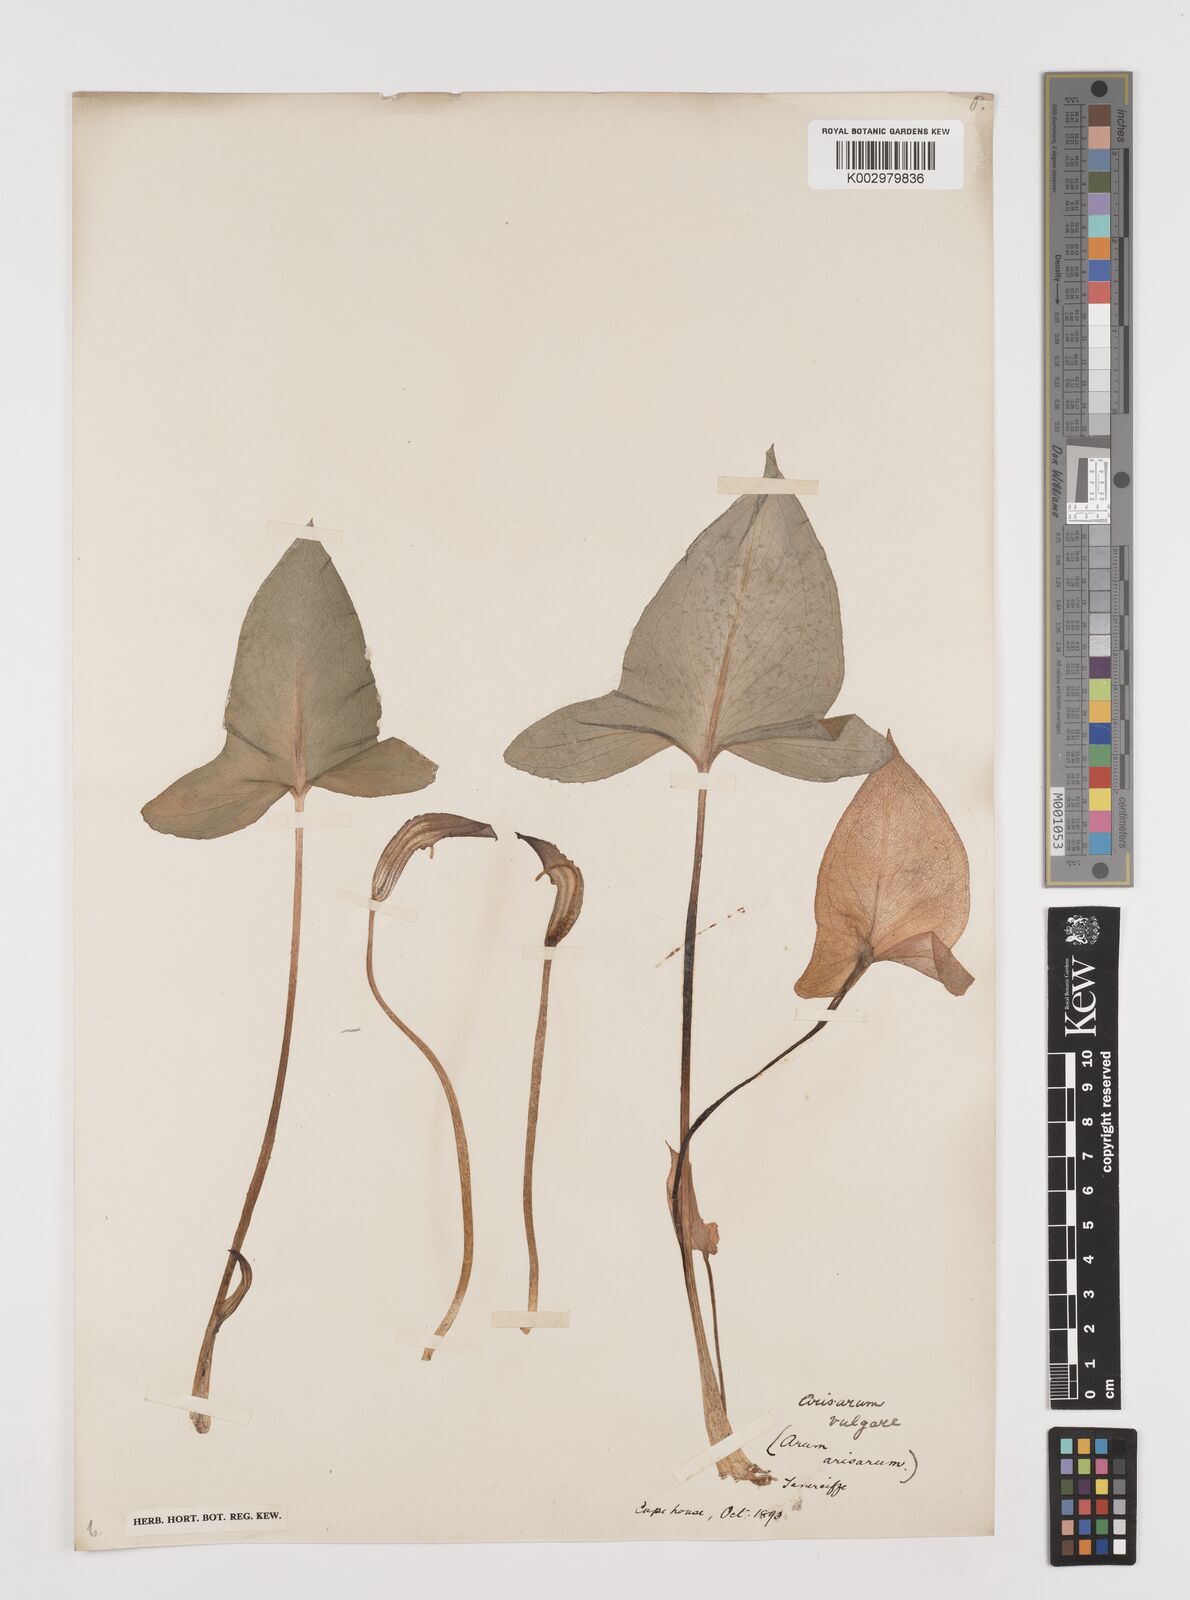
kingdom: Plantae
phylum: Tracheophyta
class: Liliopsida
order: Alismatales
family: Araceae
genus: Arisarum
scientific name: Arisarum vulgare
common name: Common arisarum
